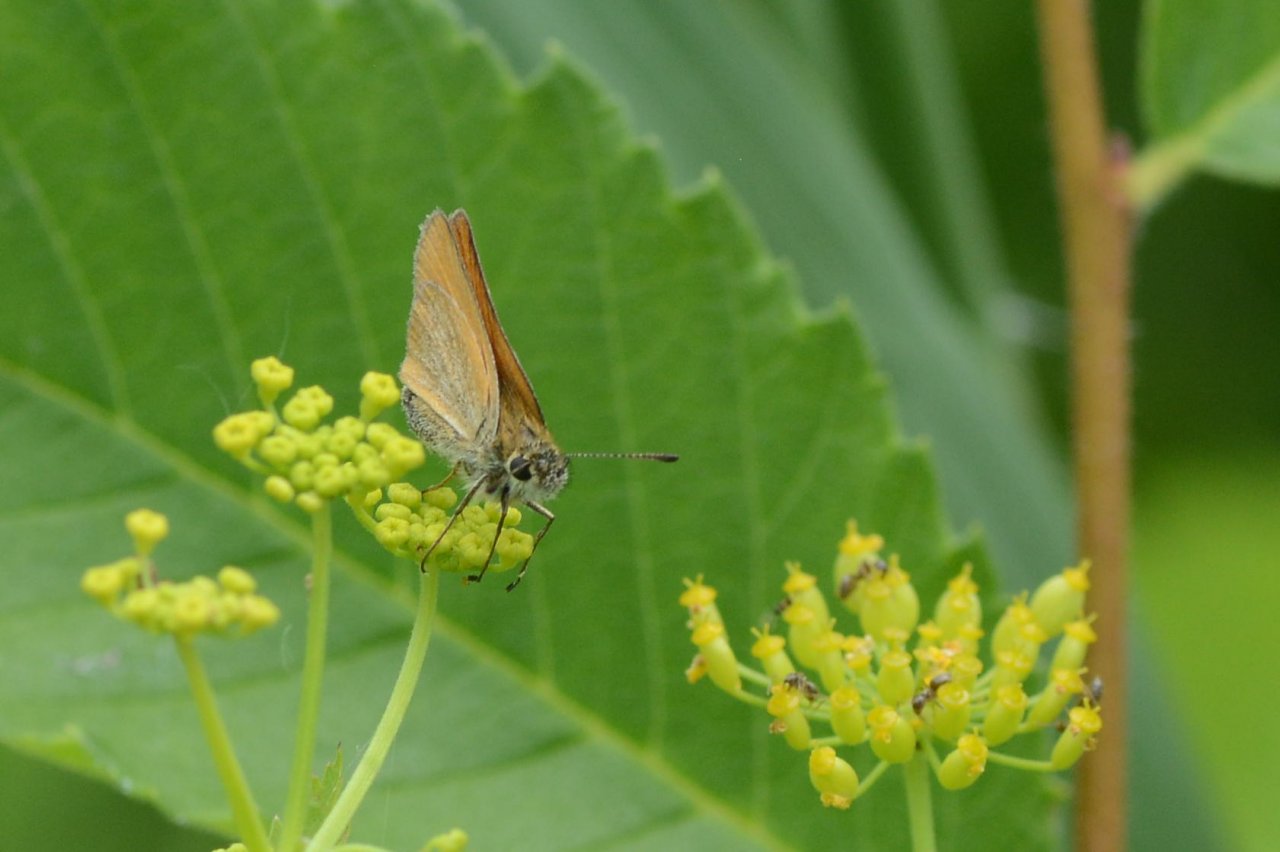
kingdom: Animalia
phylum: Arthropoda
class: Insecta
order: Lepidoptera
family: Hesperiidae
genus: Thymelicus
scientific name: Thymelicus lineola
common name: European Skipper
